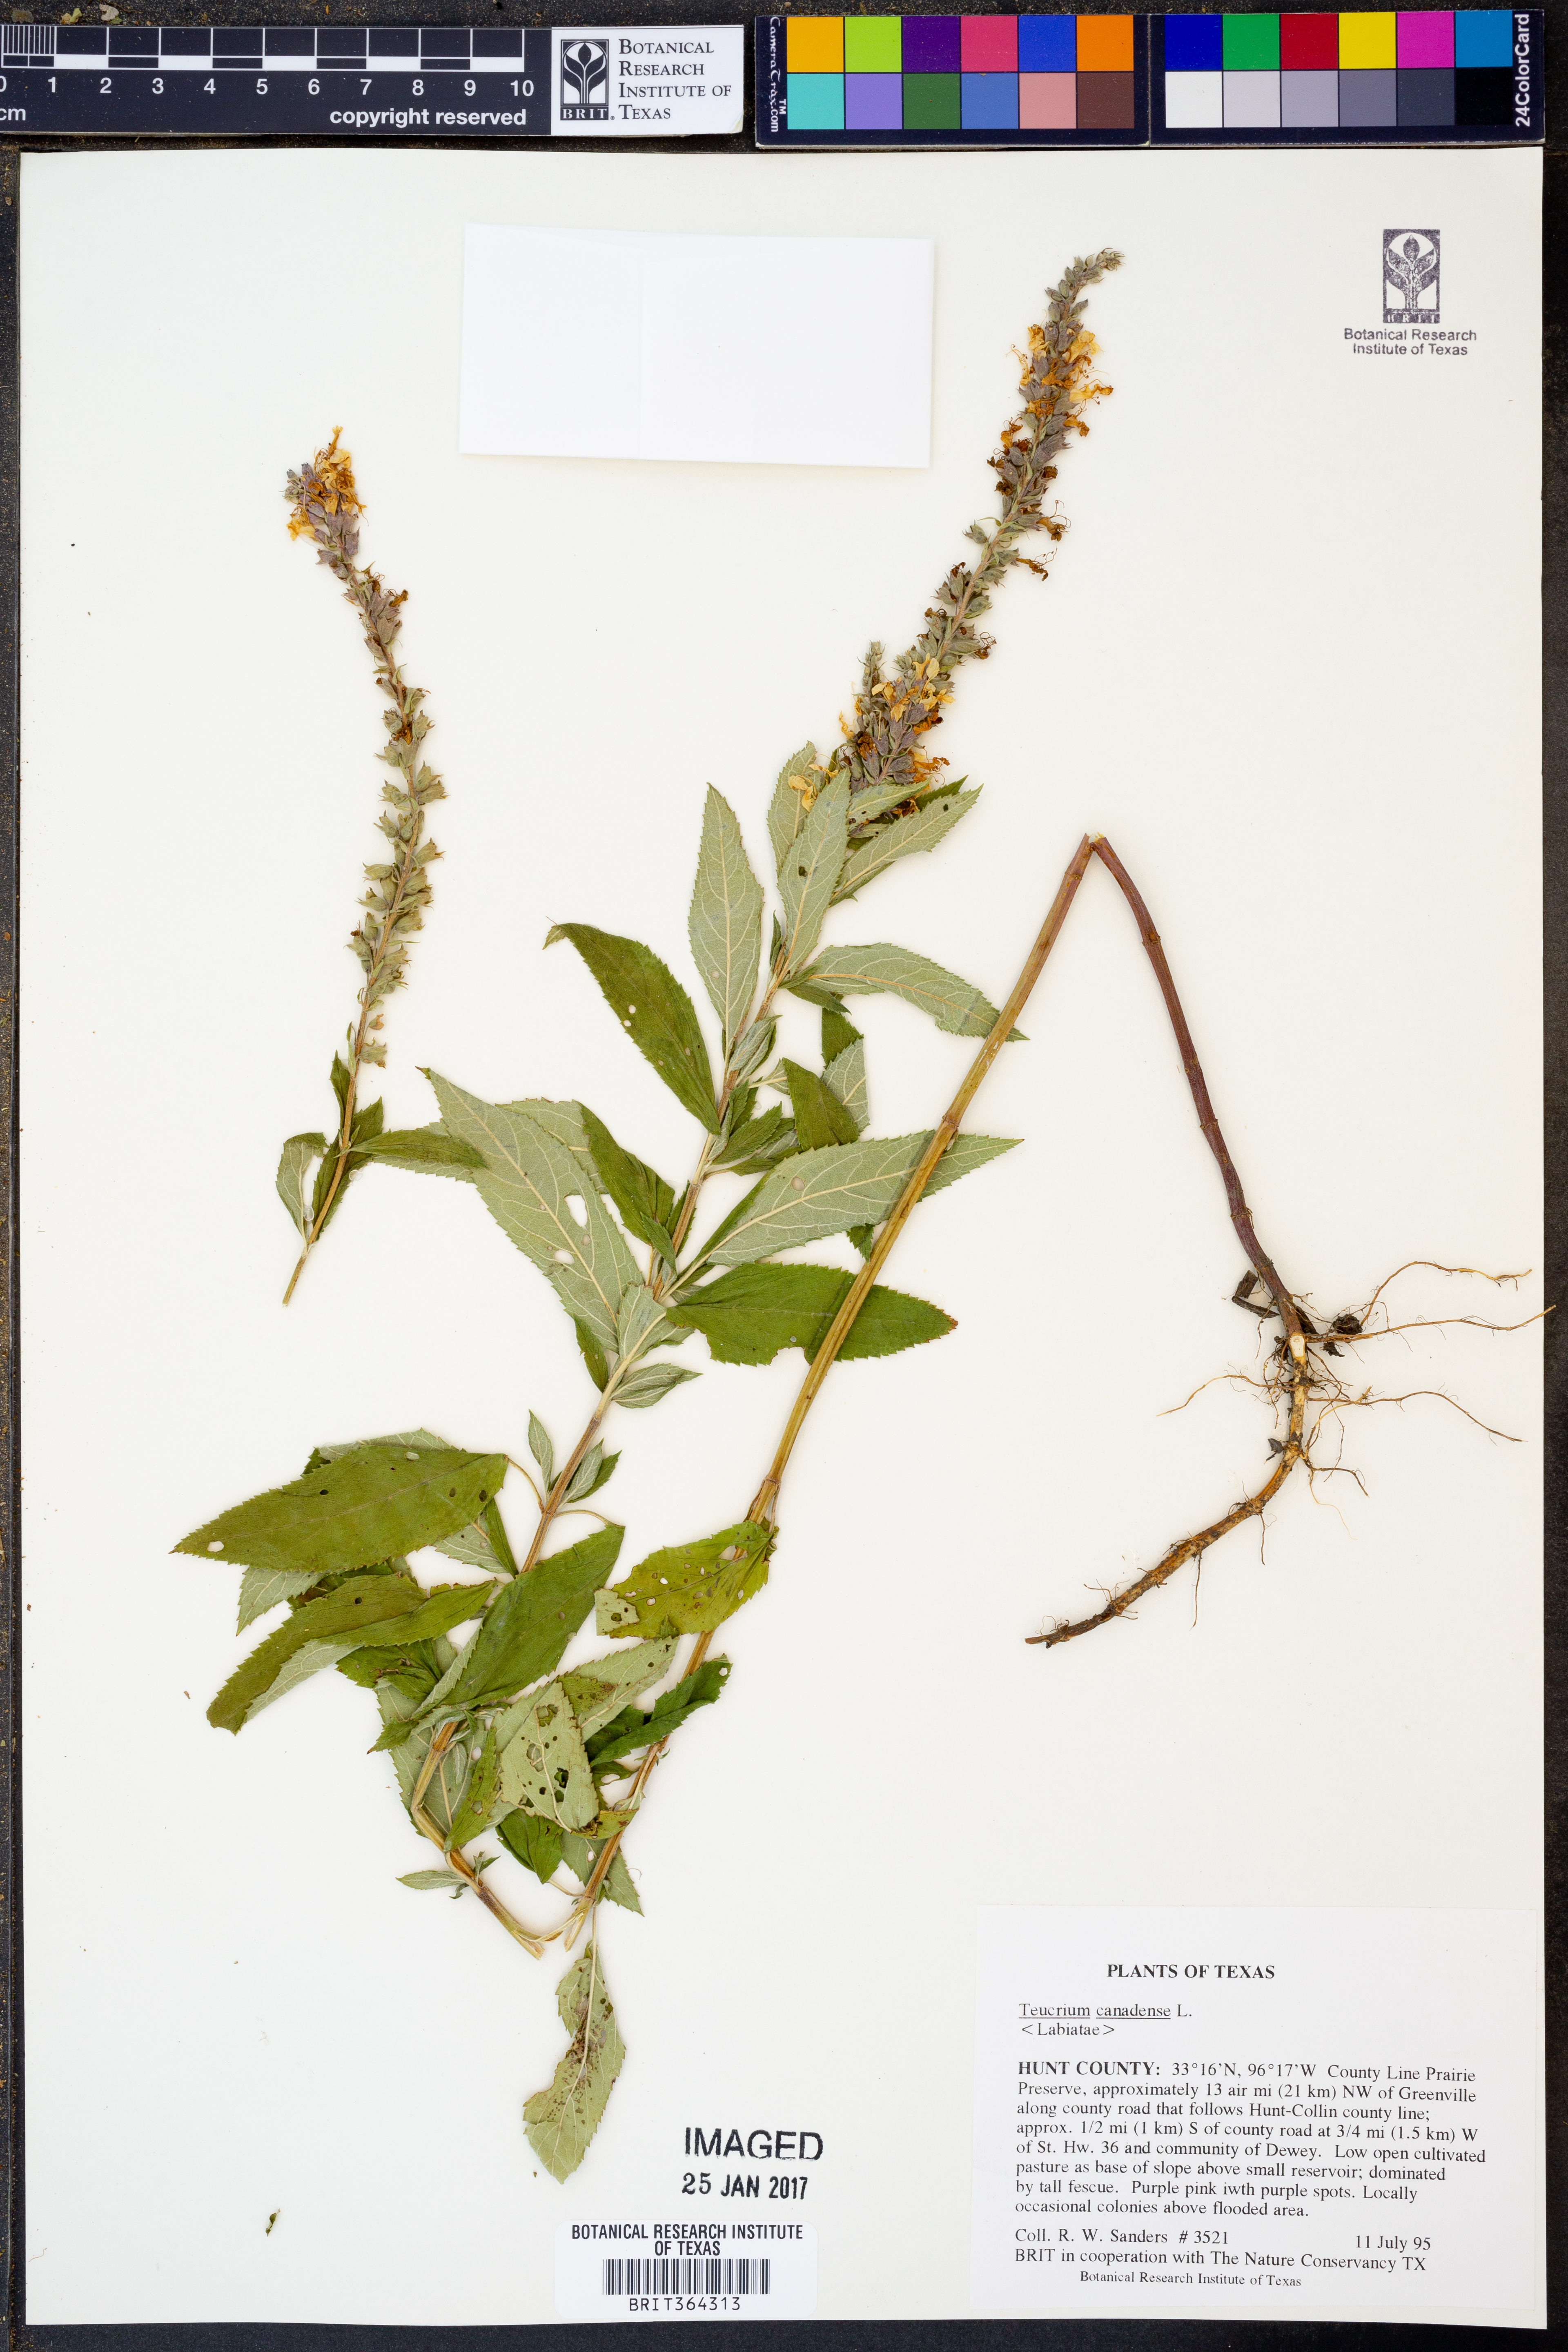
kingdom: Plantae
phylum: Tracheophyta
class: Magnoliopsida
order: Lamiales
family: Lamiaceae
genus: Teucrium
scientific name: Teucrium canadense
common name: American germander
